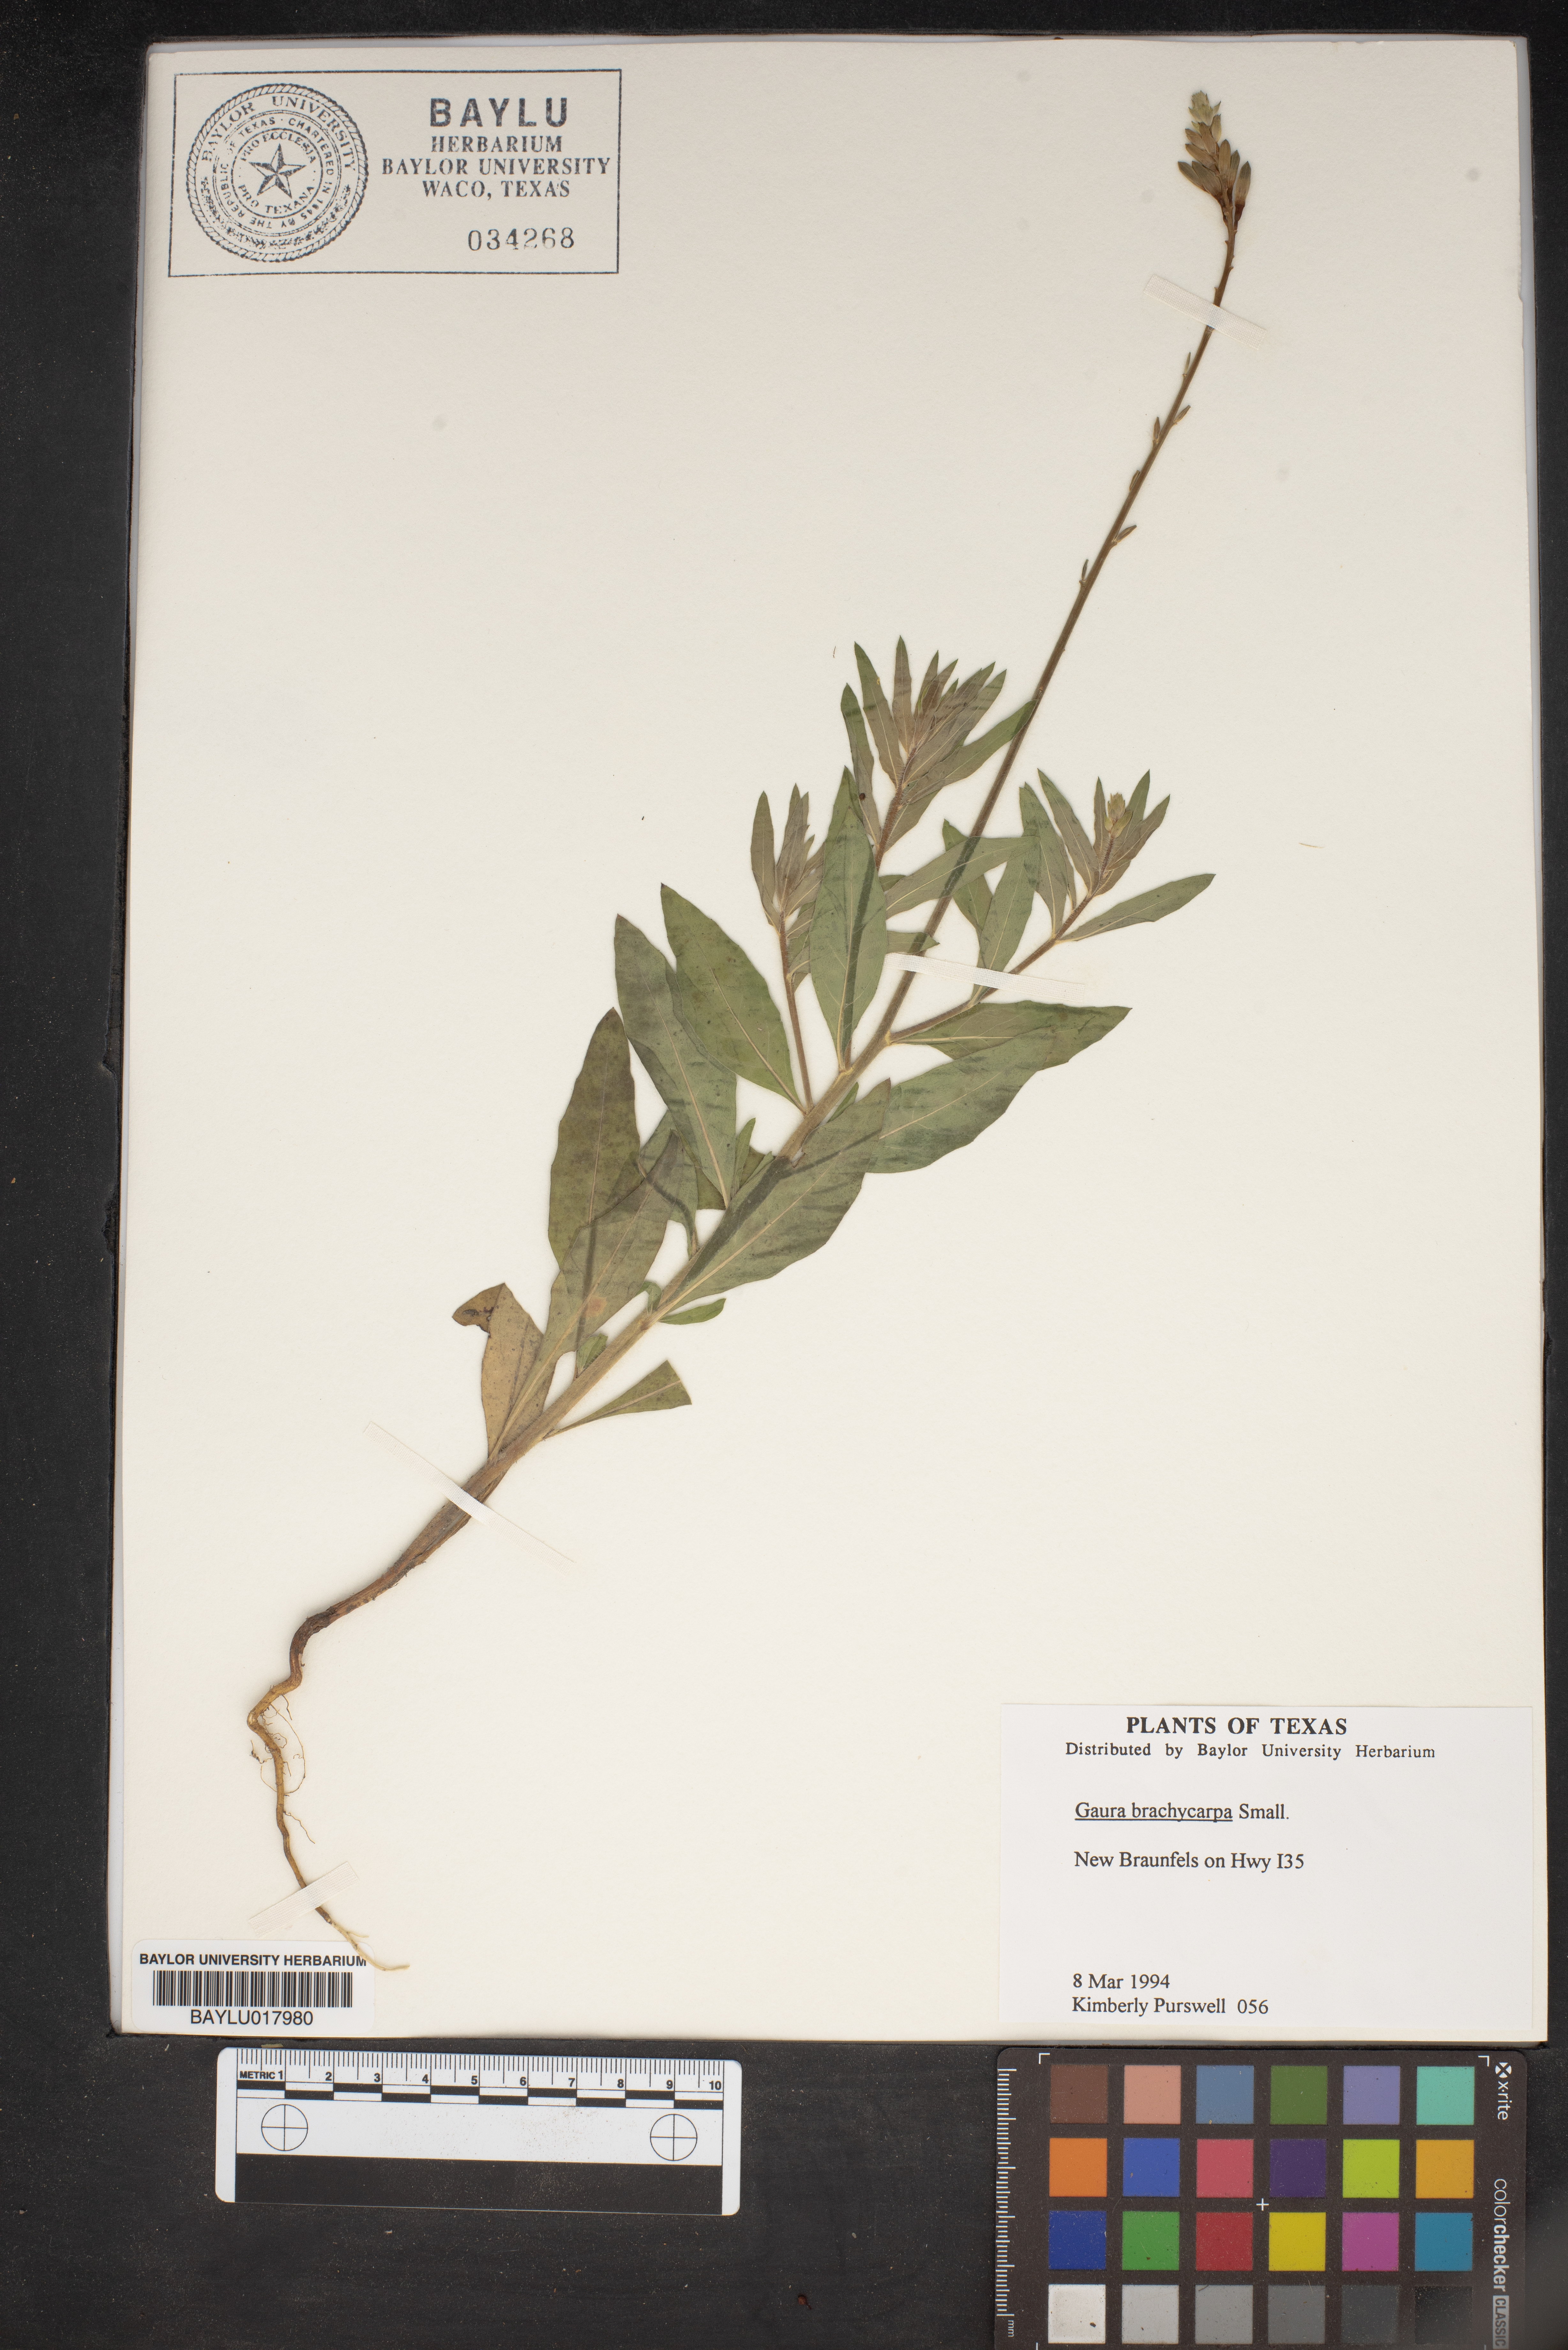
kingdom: Plantae
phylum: Tracheophyta
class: Magnoliopsida
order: Myrtales
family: Onagraceae
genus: Oenothera
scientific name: Oenothera patriciae
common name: Plains beeblossom
